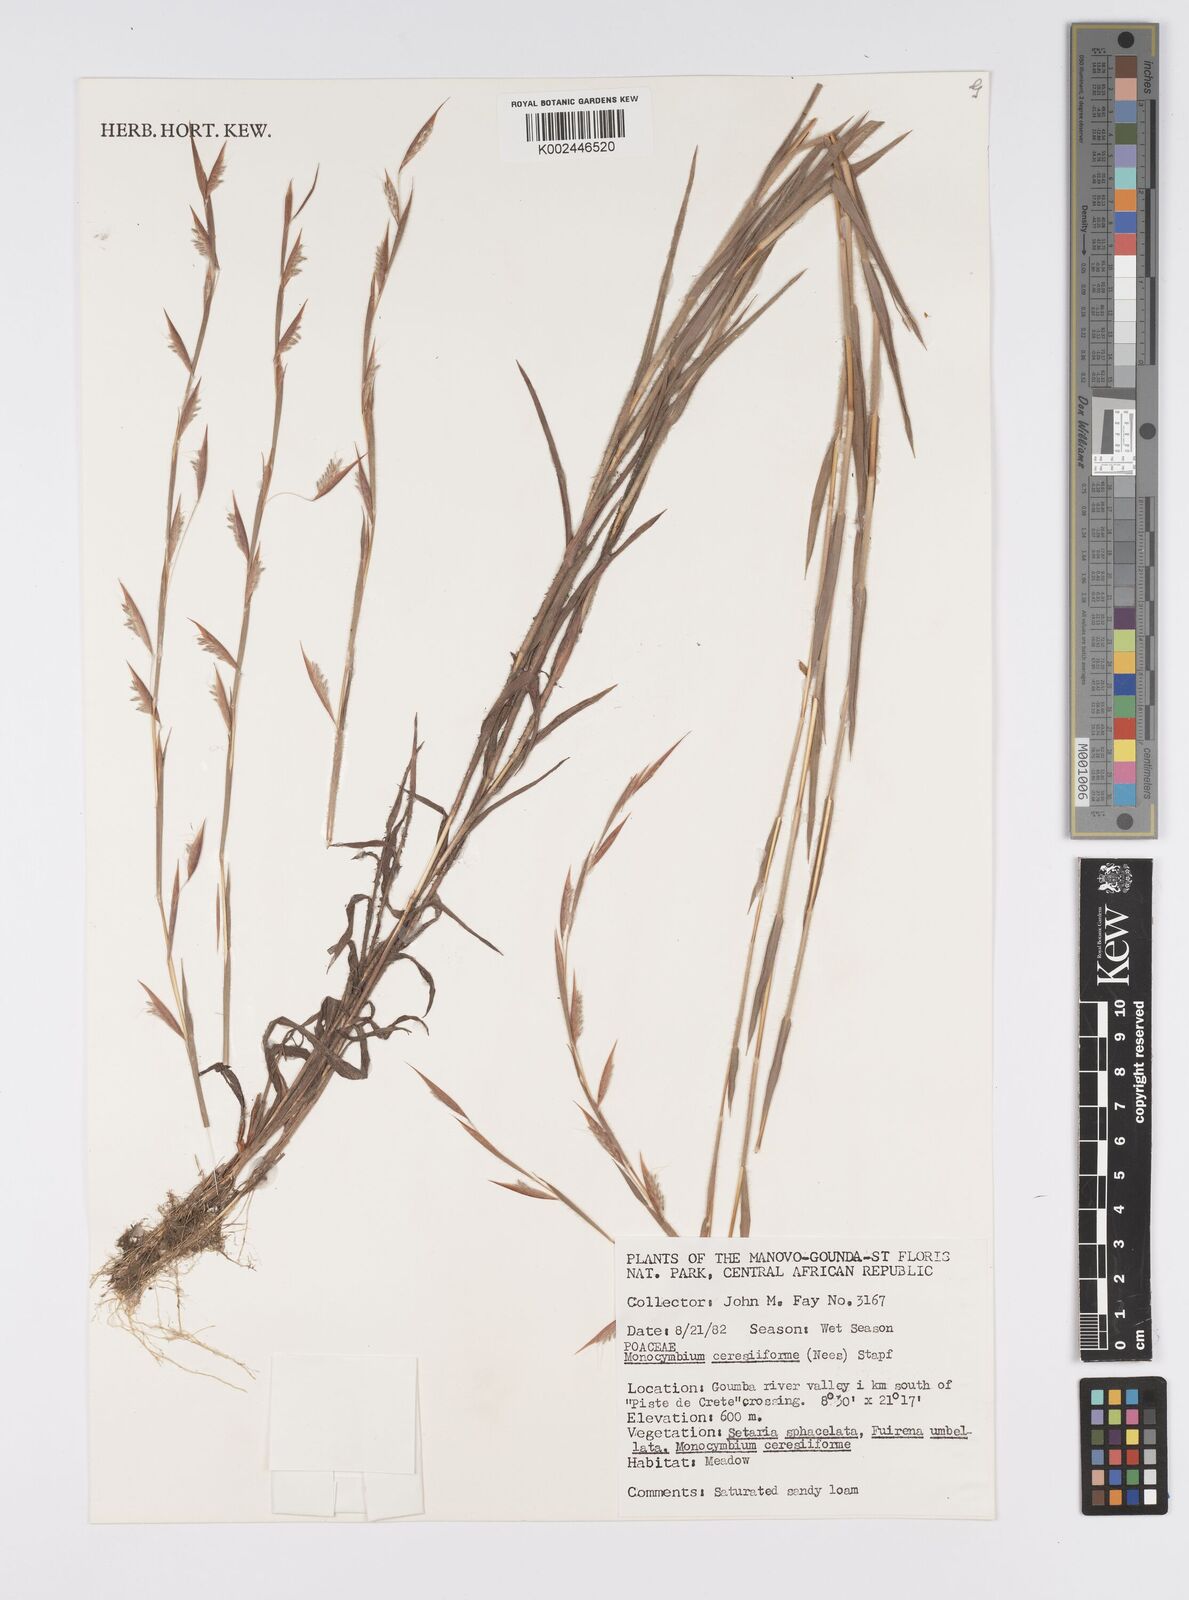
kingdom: Plantae
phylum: Tracheophyta
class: Liliopsida
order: Poales
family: Poaceae
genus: Monocymbium
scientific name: Monocymbium ceresiiforme
